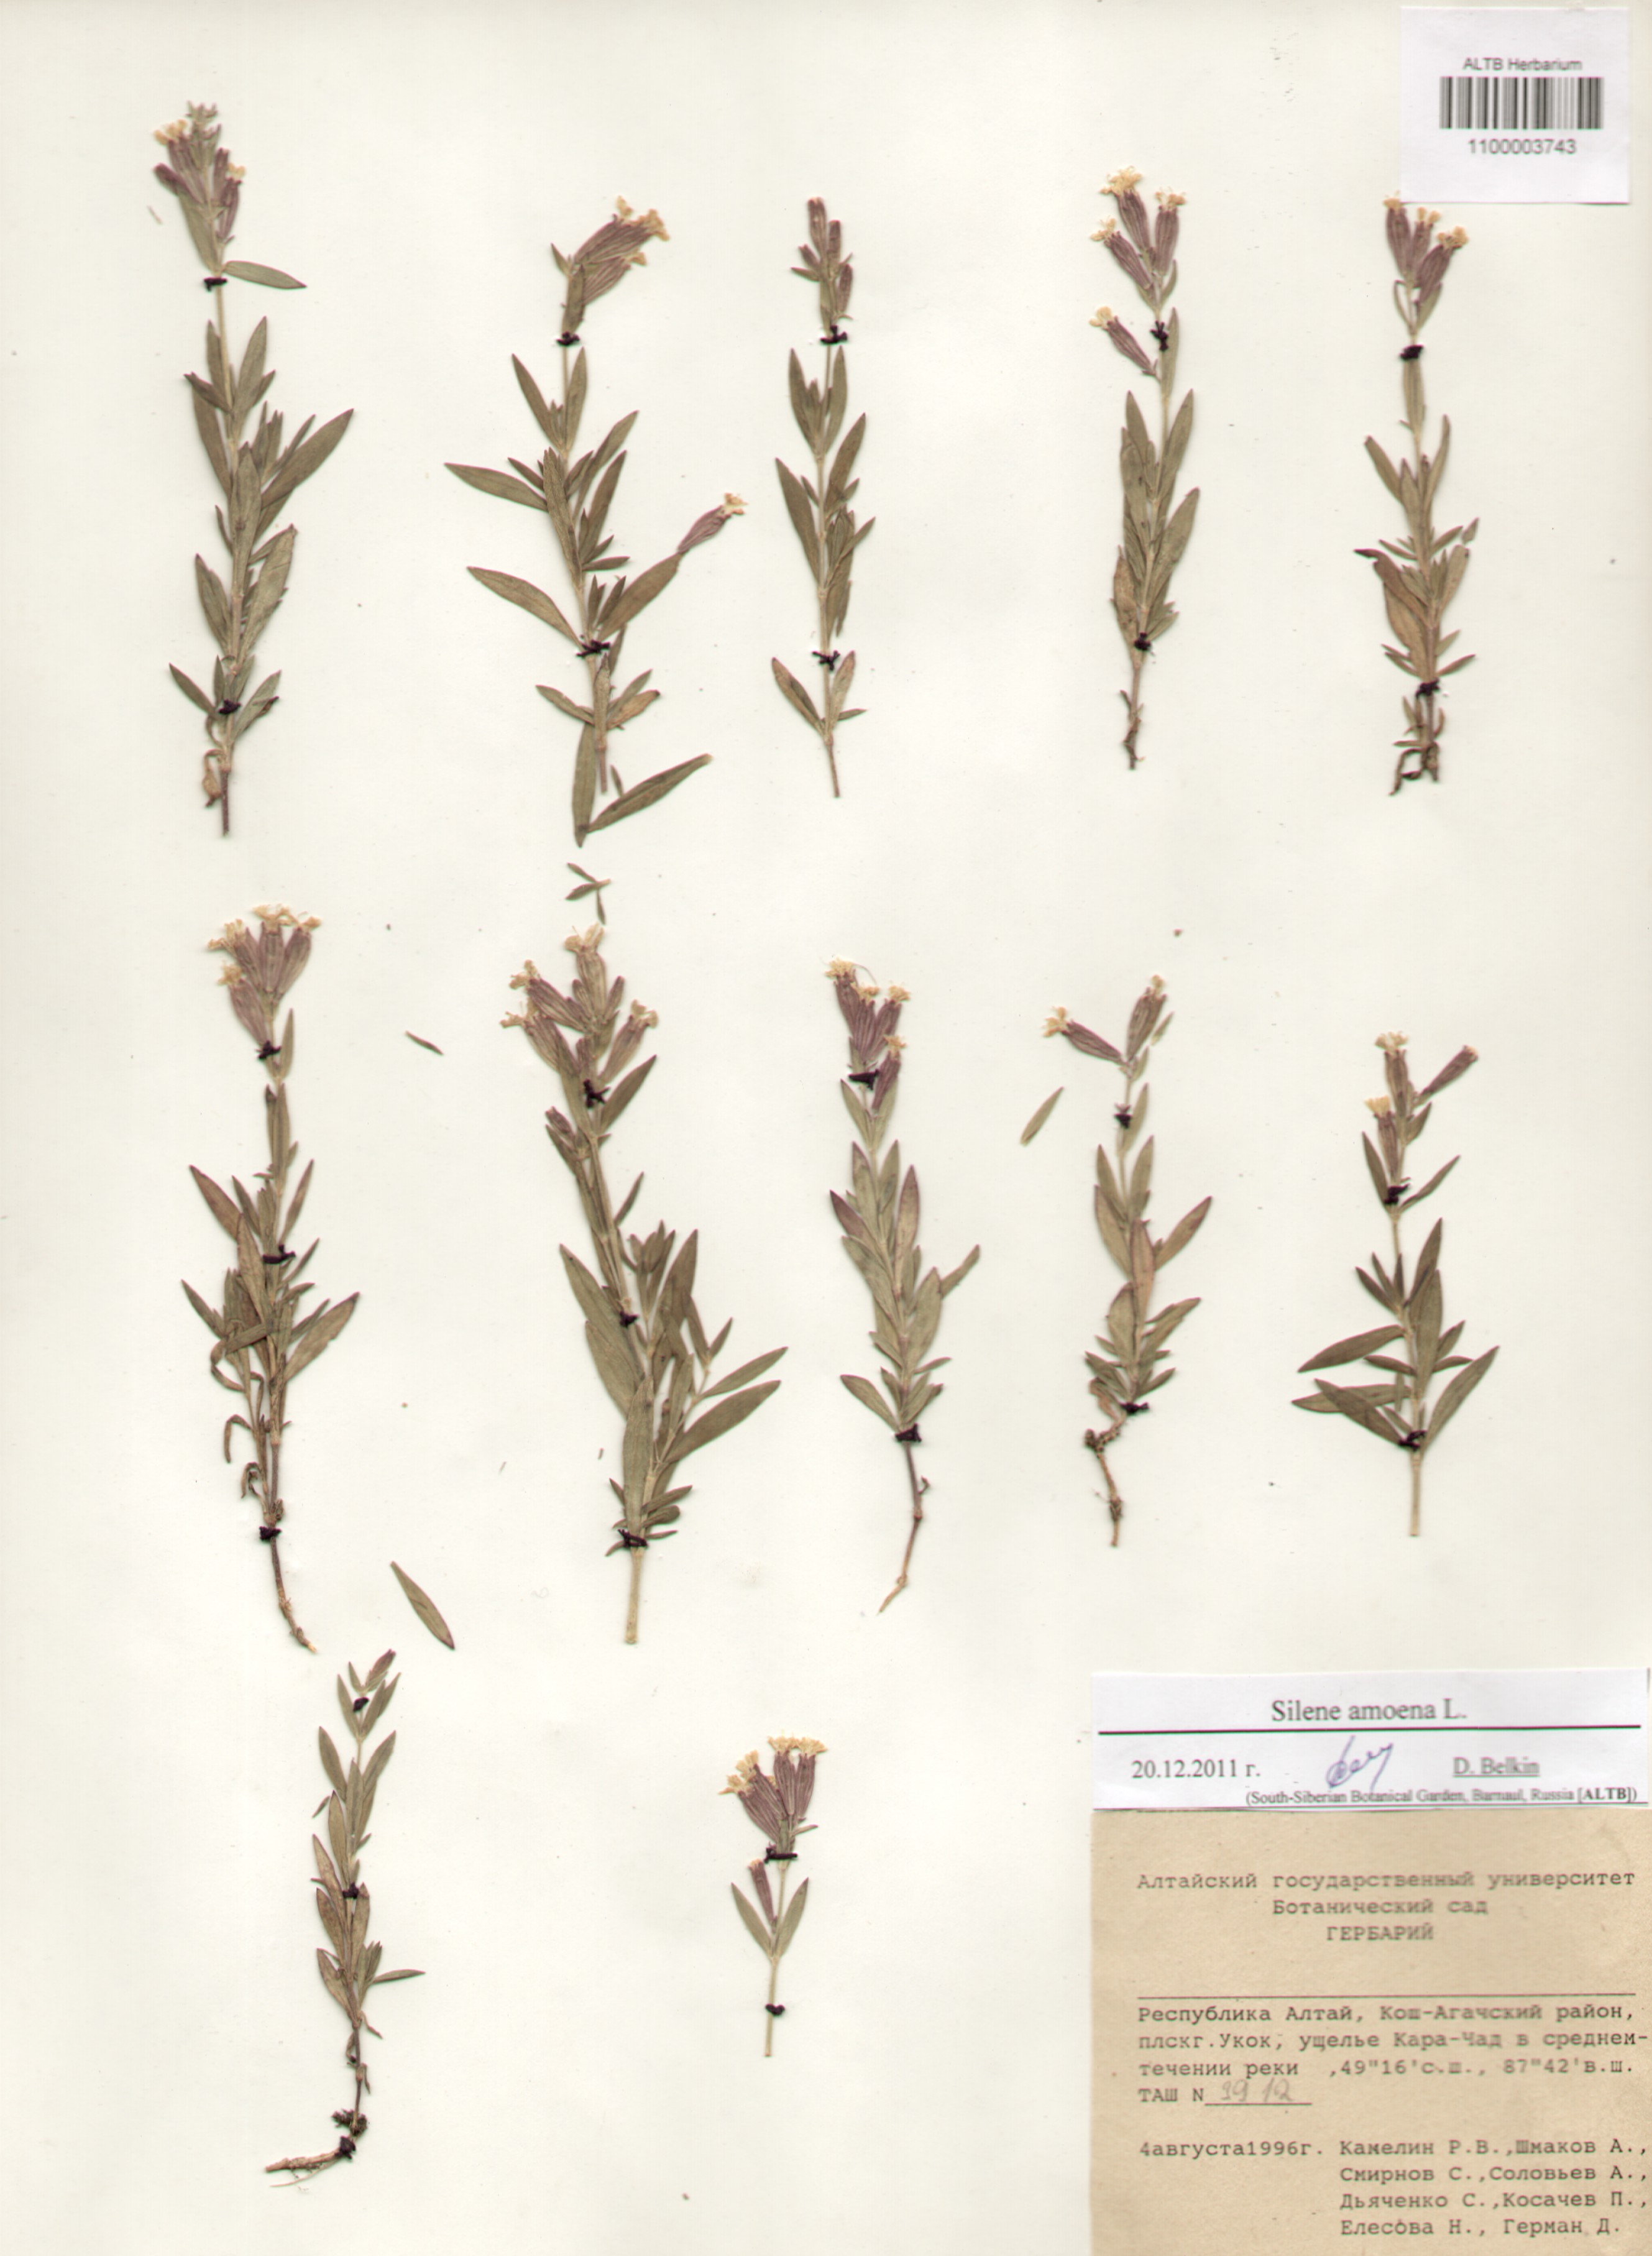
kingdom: Plantae
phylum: Tracheophyta
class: Magnoliopsida
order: Caryophyllales
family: Caryophyllaceae
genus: Silene
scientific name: Silene amoena
